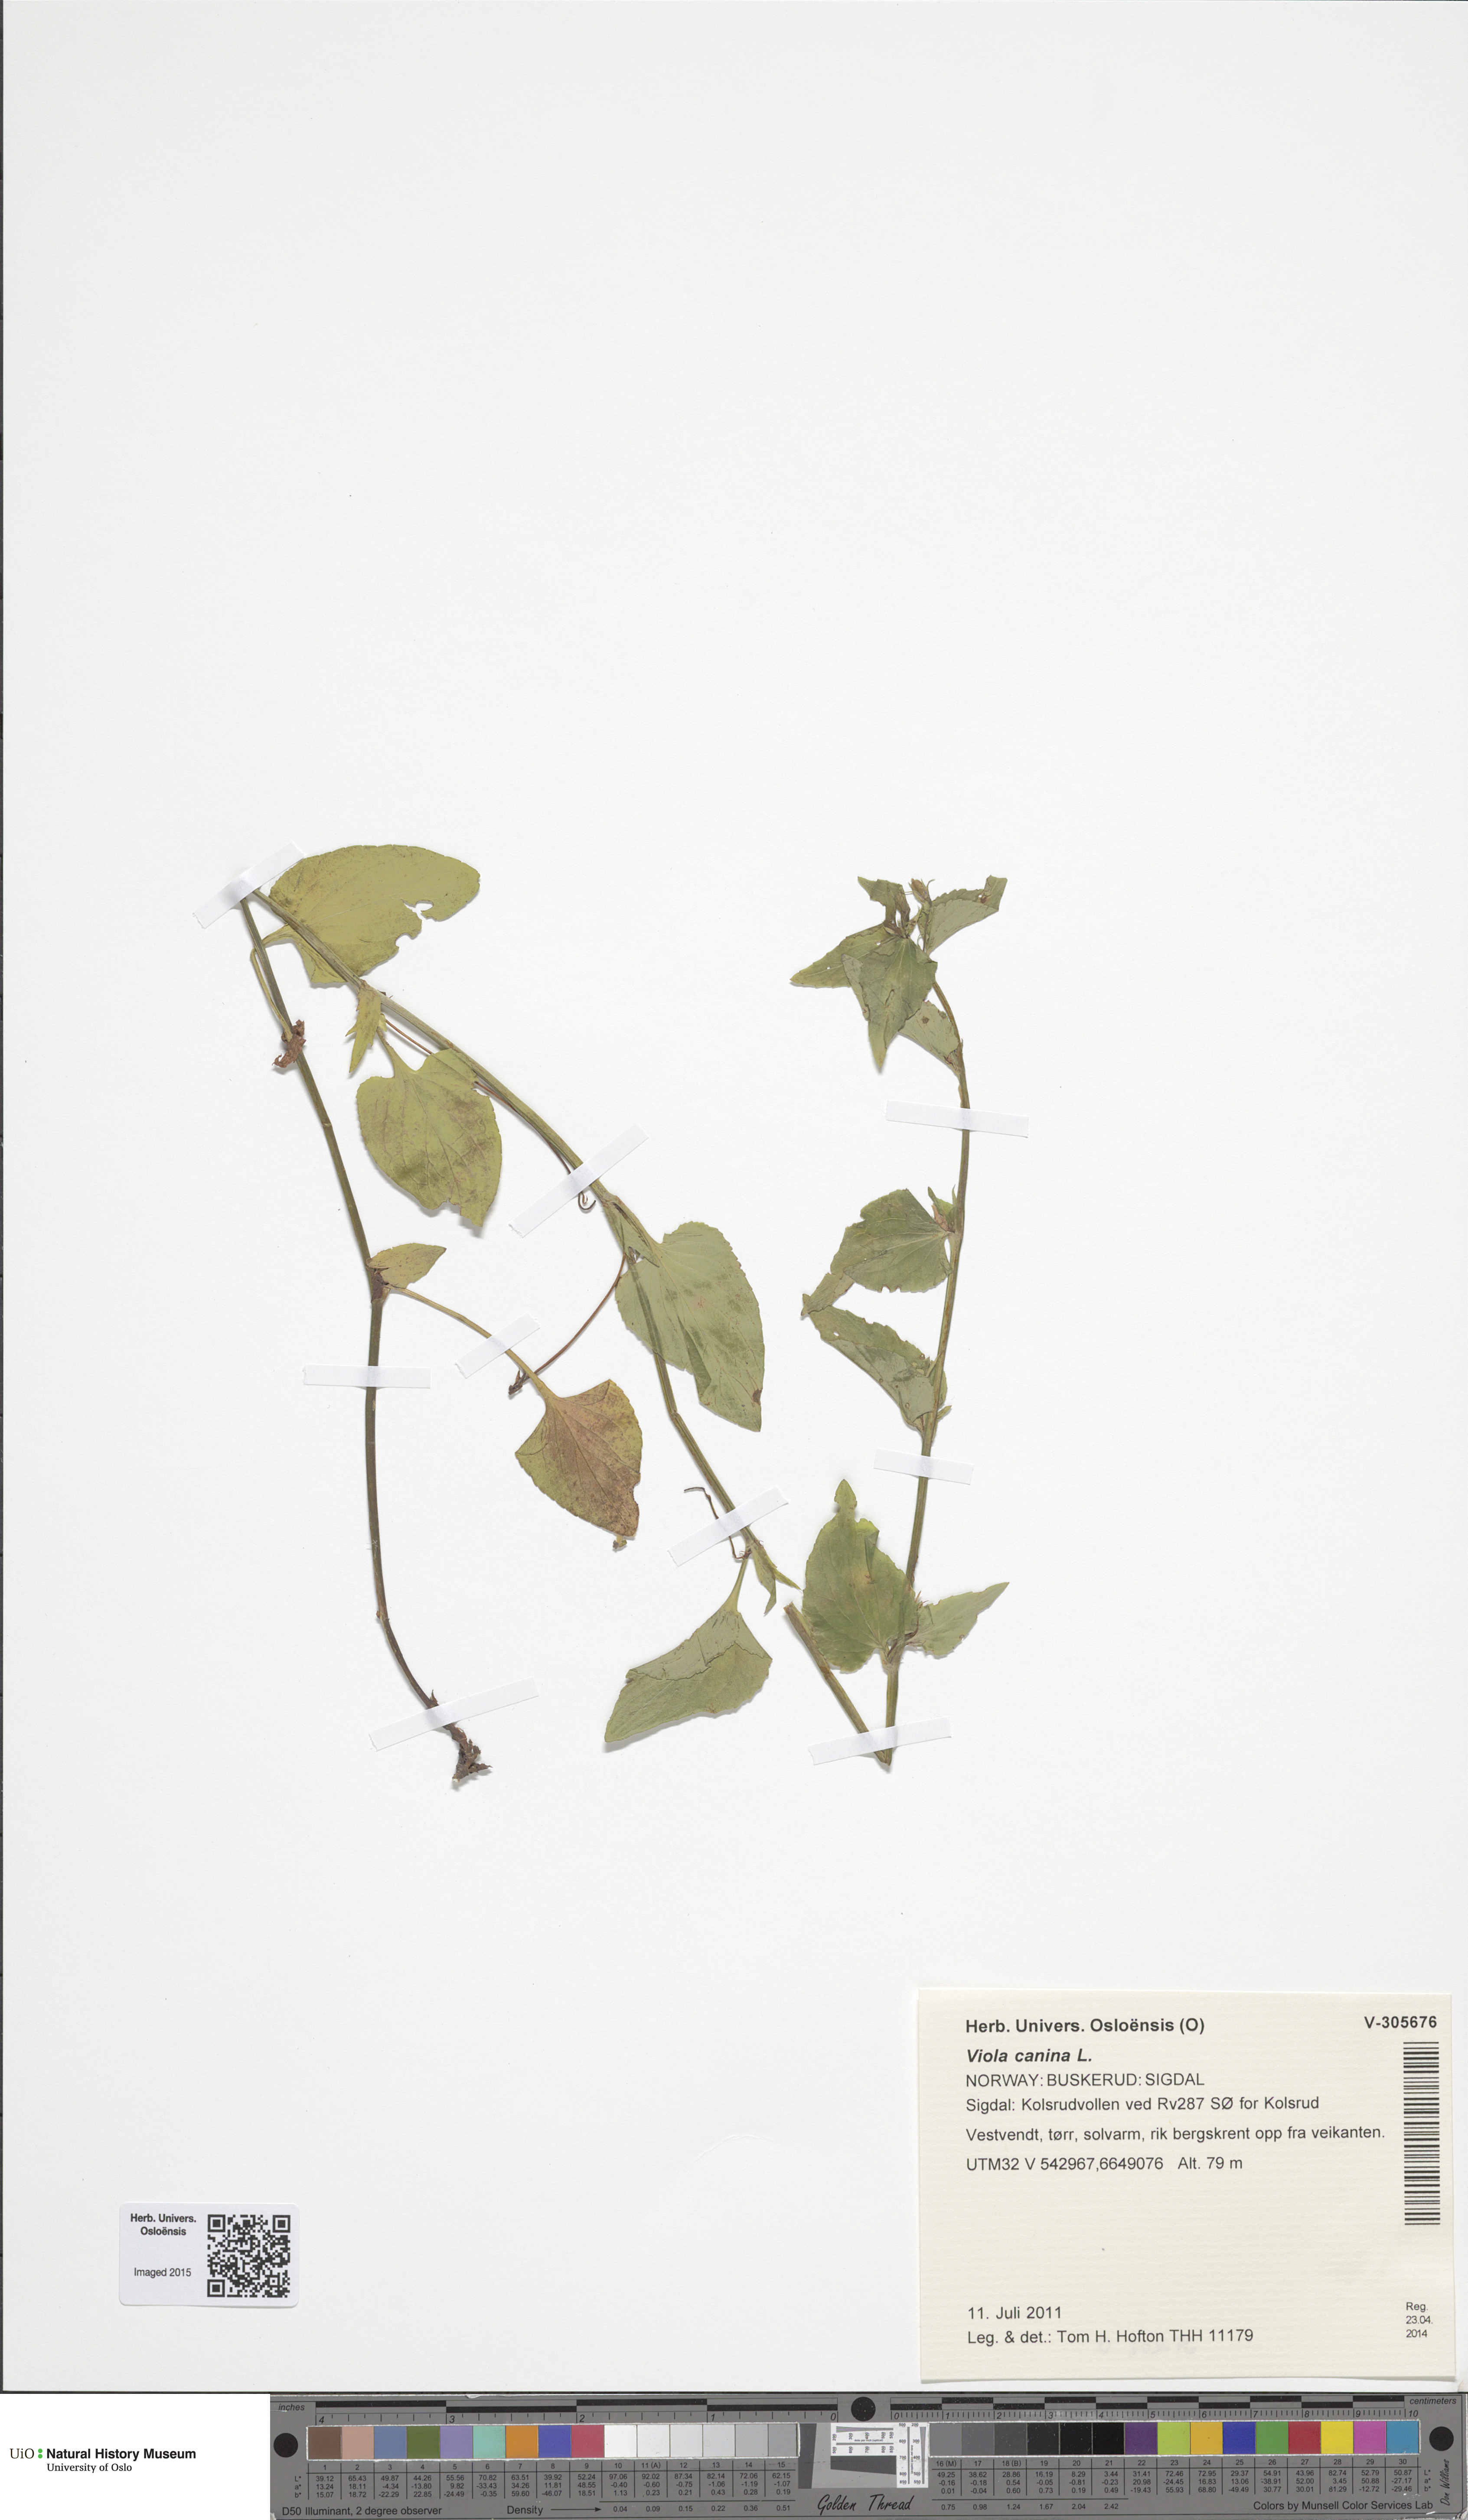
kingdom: Plantae
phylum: Tracheophyta
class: Magnoliopsida
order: Malpighiales
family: Violaceae
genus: Viola
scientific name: Viola canina
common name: Heath dog-violet
